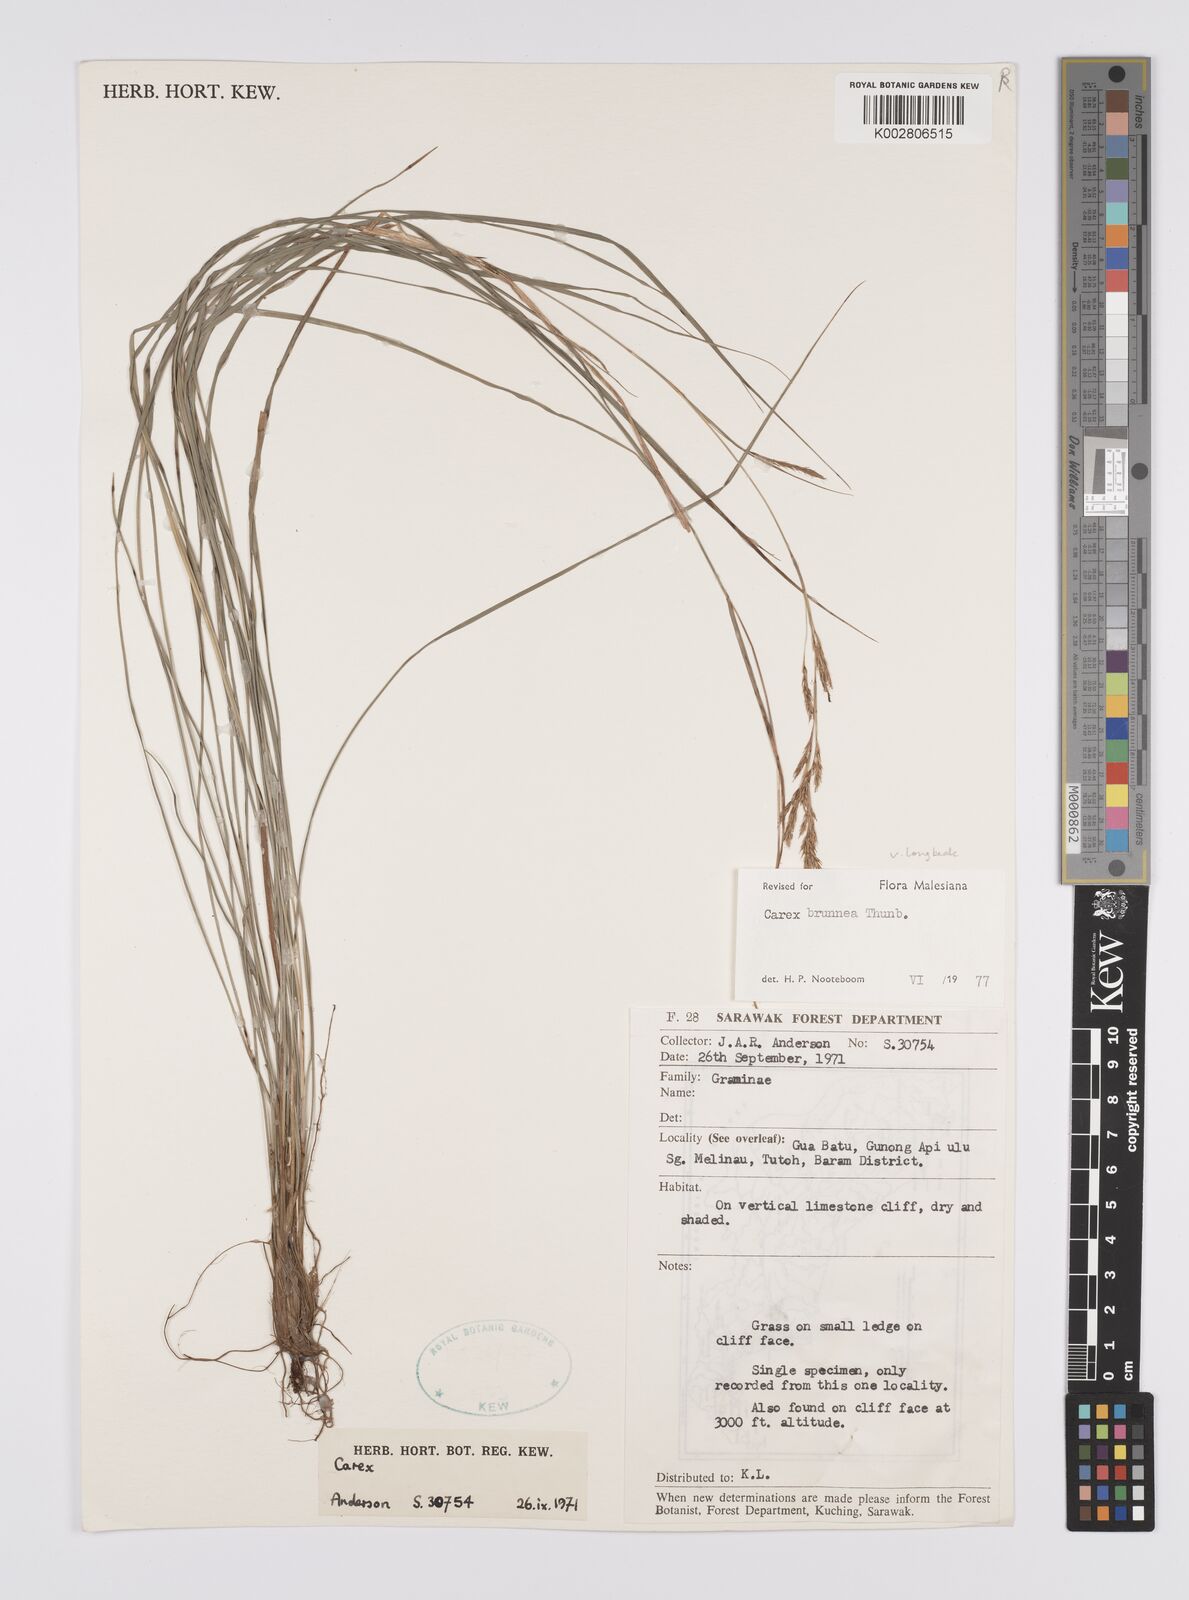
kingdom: Plantae
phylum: Tracheophyta
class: Liliopsida
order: Poales
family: Cyperaceae
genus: Carex
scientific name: Carex brunnea
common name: Greater brown sedge
